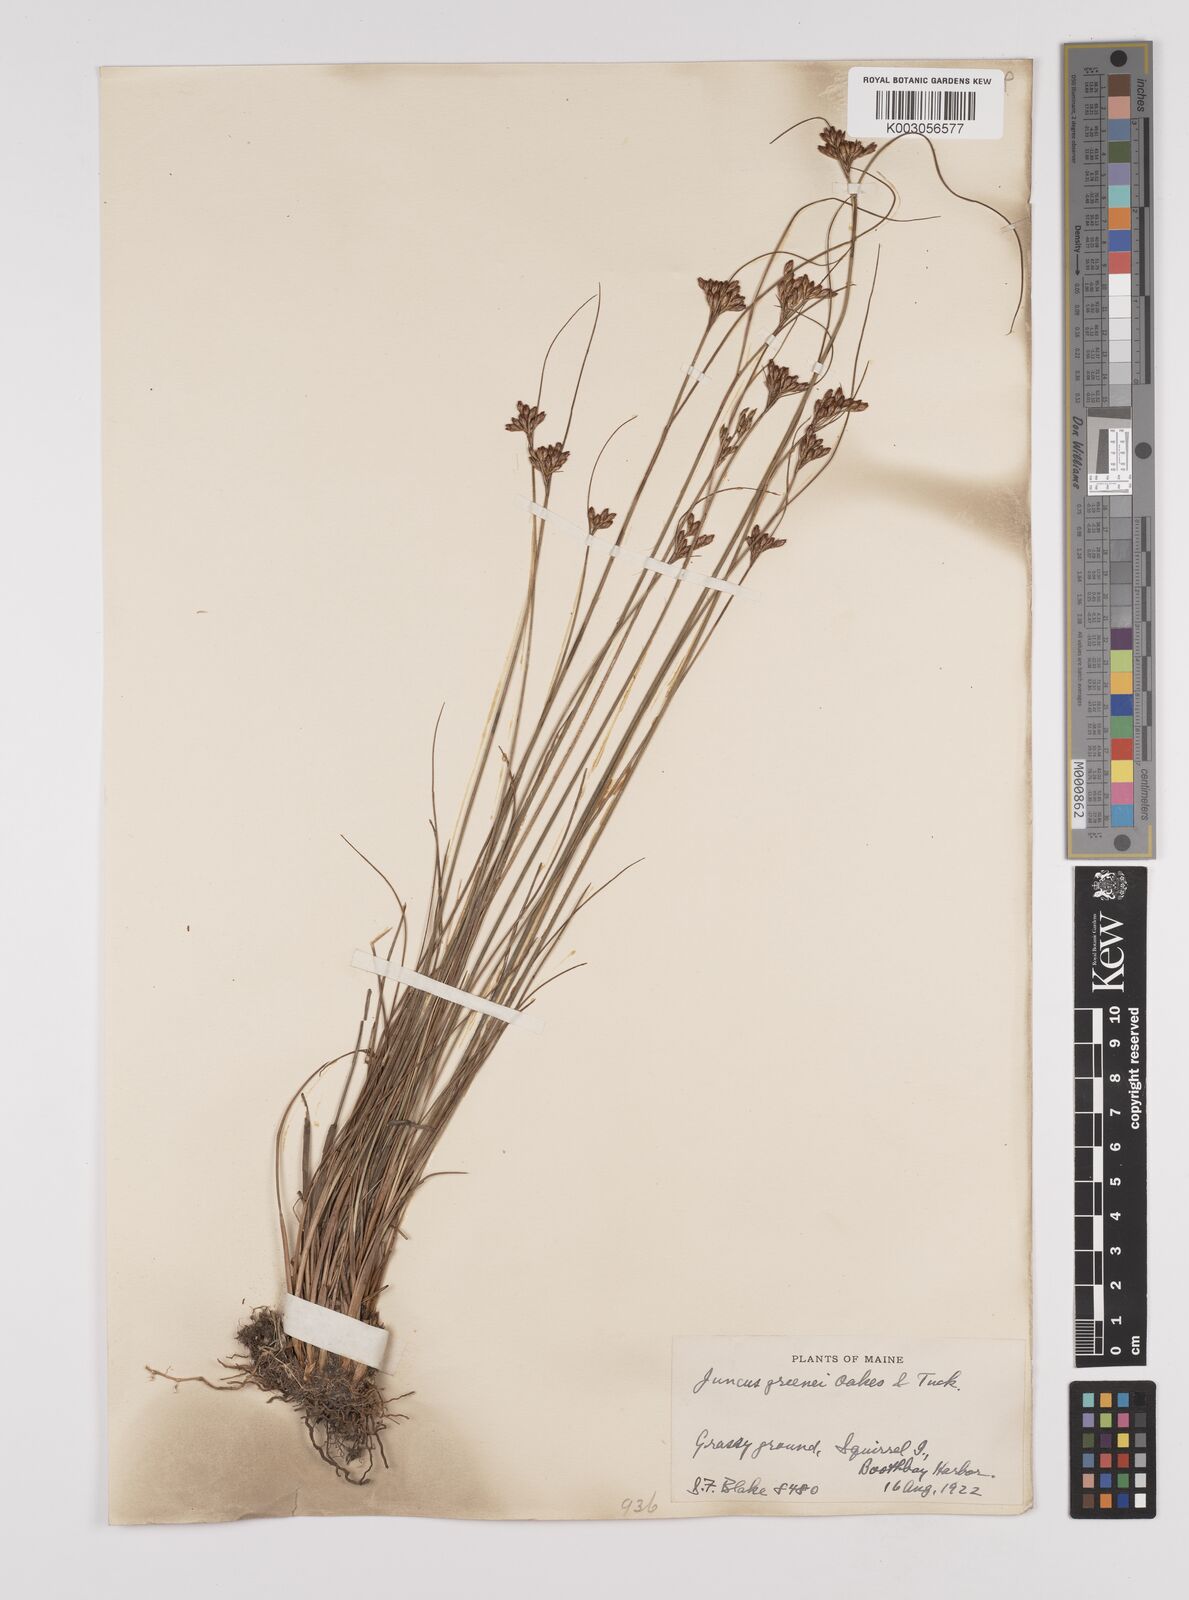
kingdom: Plantae
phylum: Tracheophyta
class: Liliopsida
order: Poales
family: Juncaceae
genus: Juncus
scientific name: Juncus greenei
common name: Greene's rush
